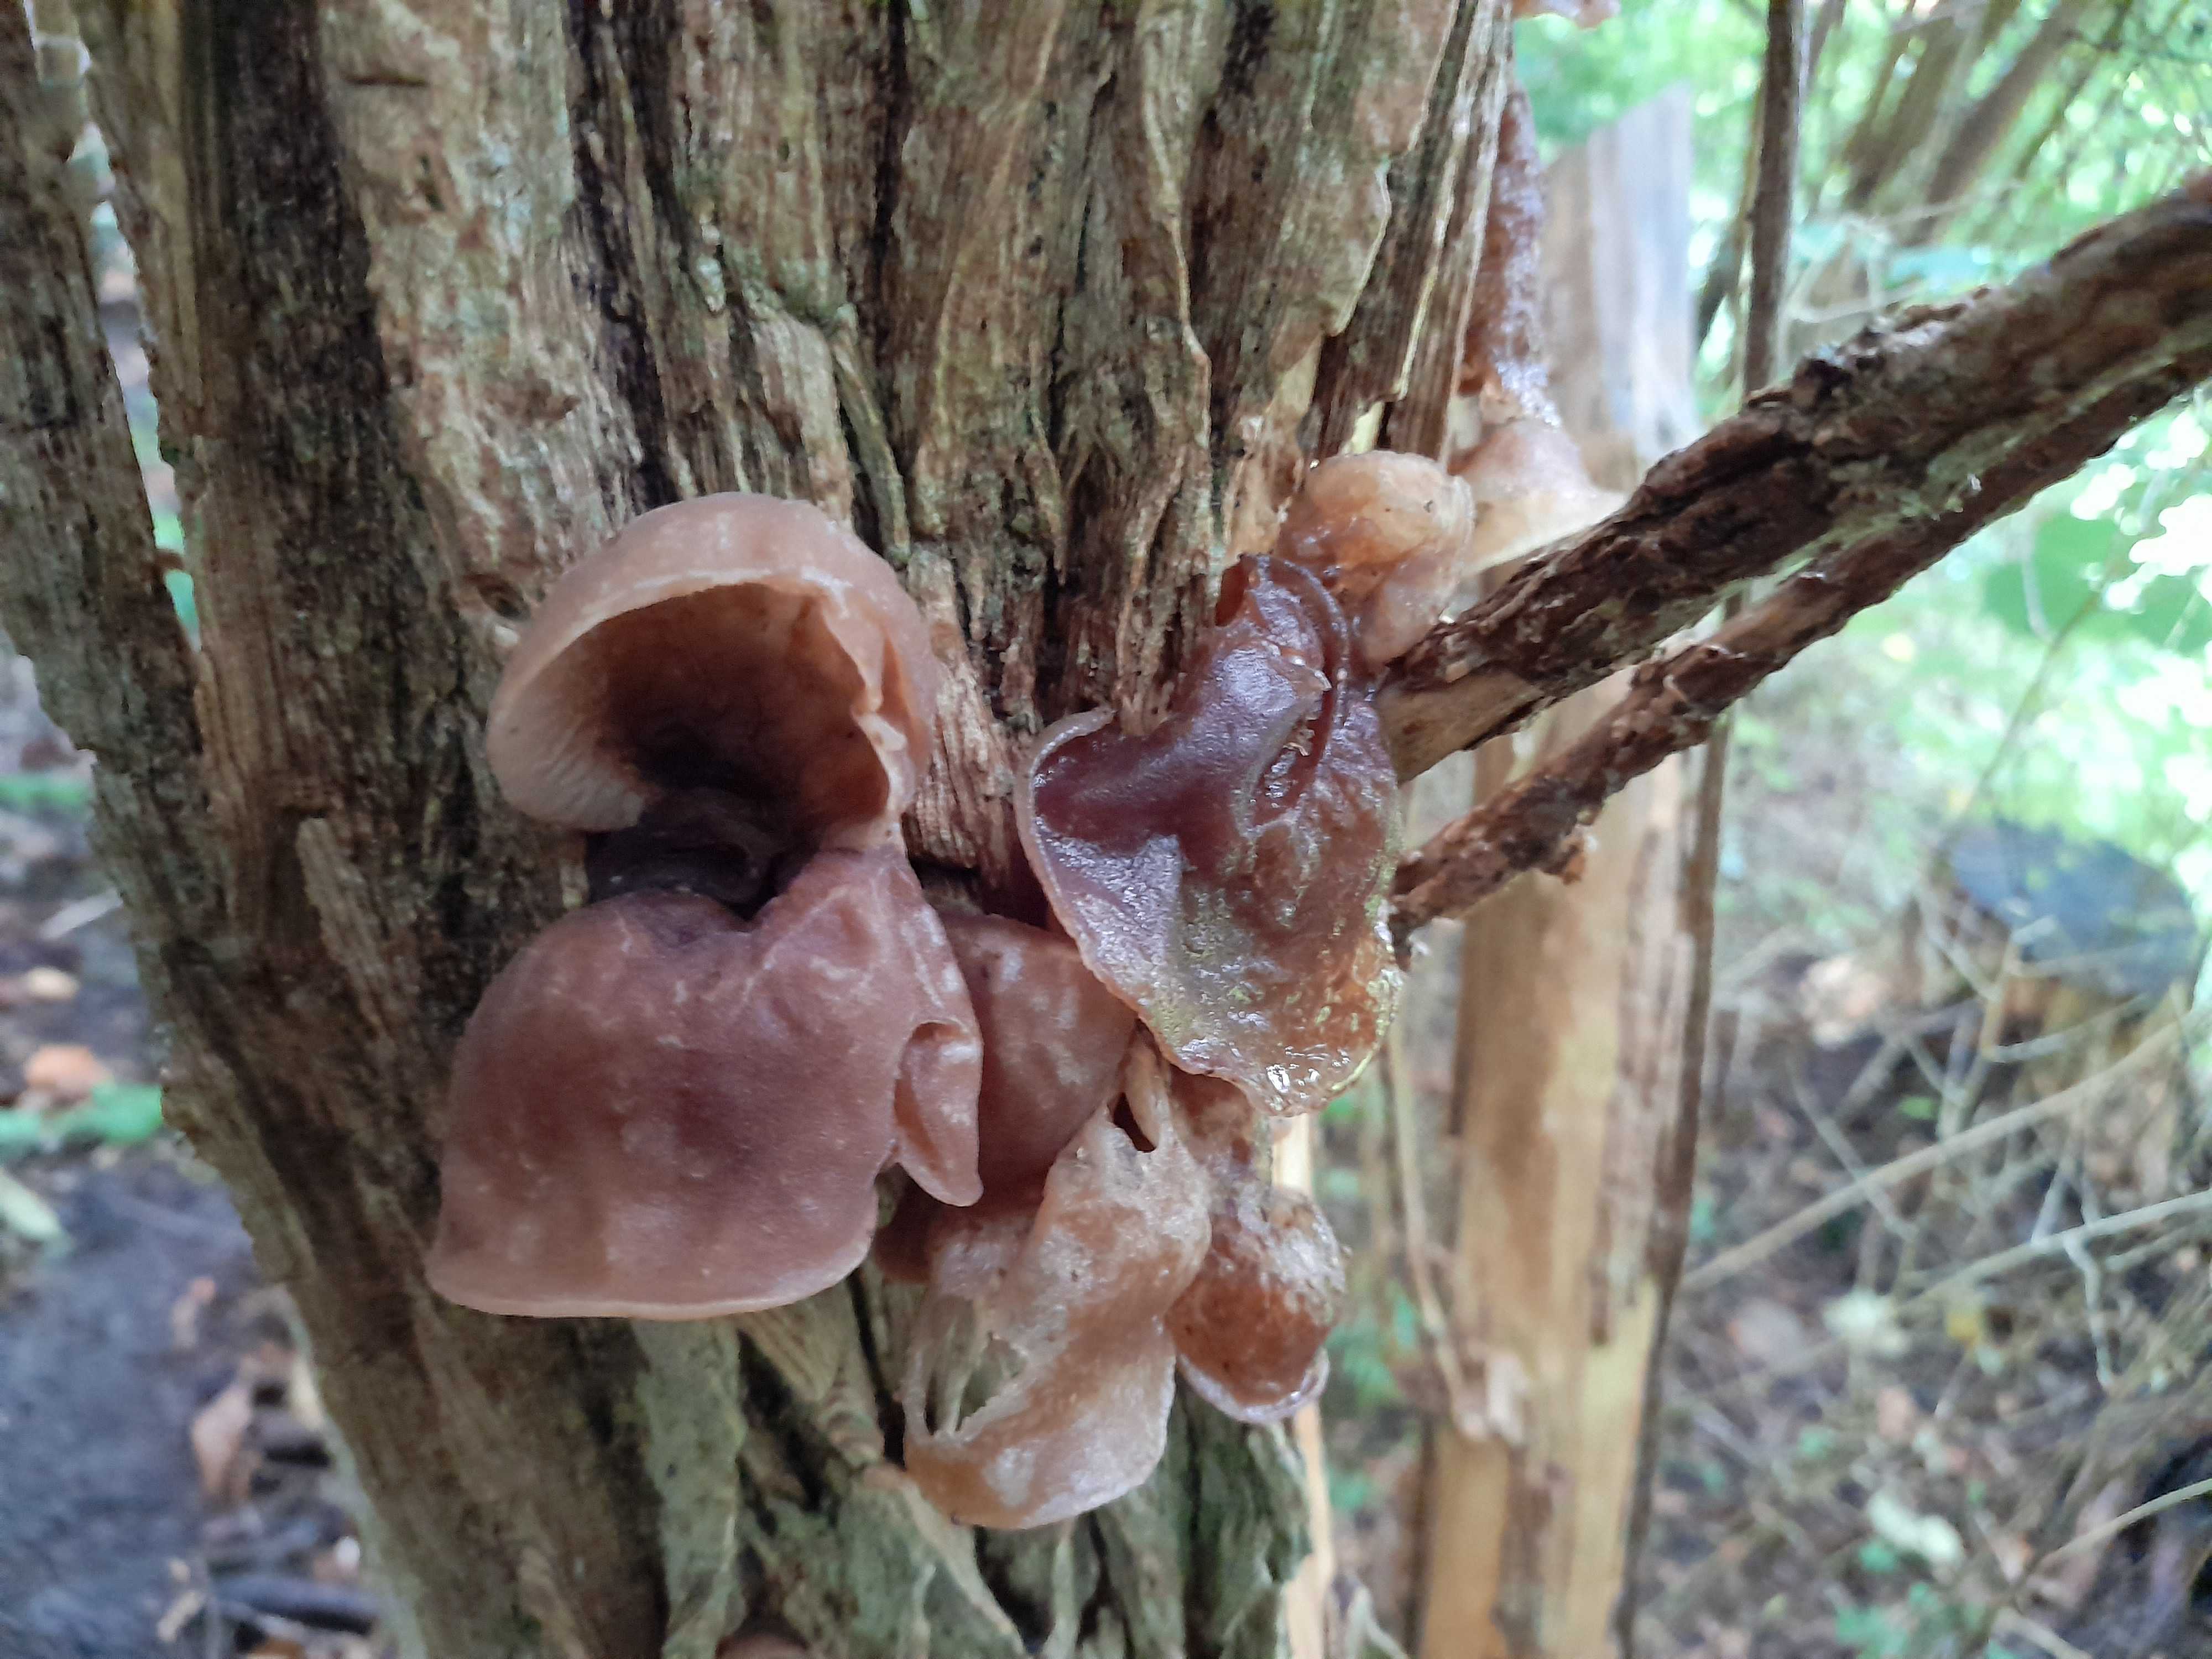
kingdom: Fungi
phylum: Basidiomycota
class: Agaricomycetes
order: Auriculariales
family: Auriculariaceae
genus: Auricularia
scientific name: Auricularia auricula-judae
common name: almindelig judasøre
